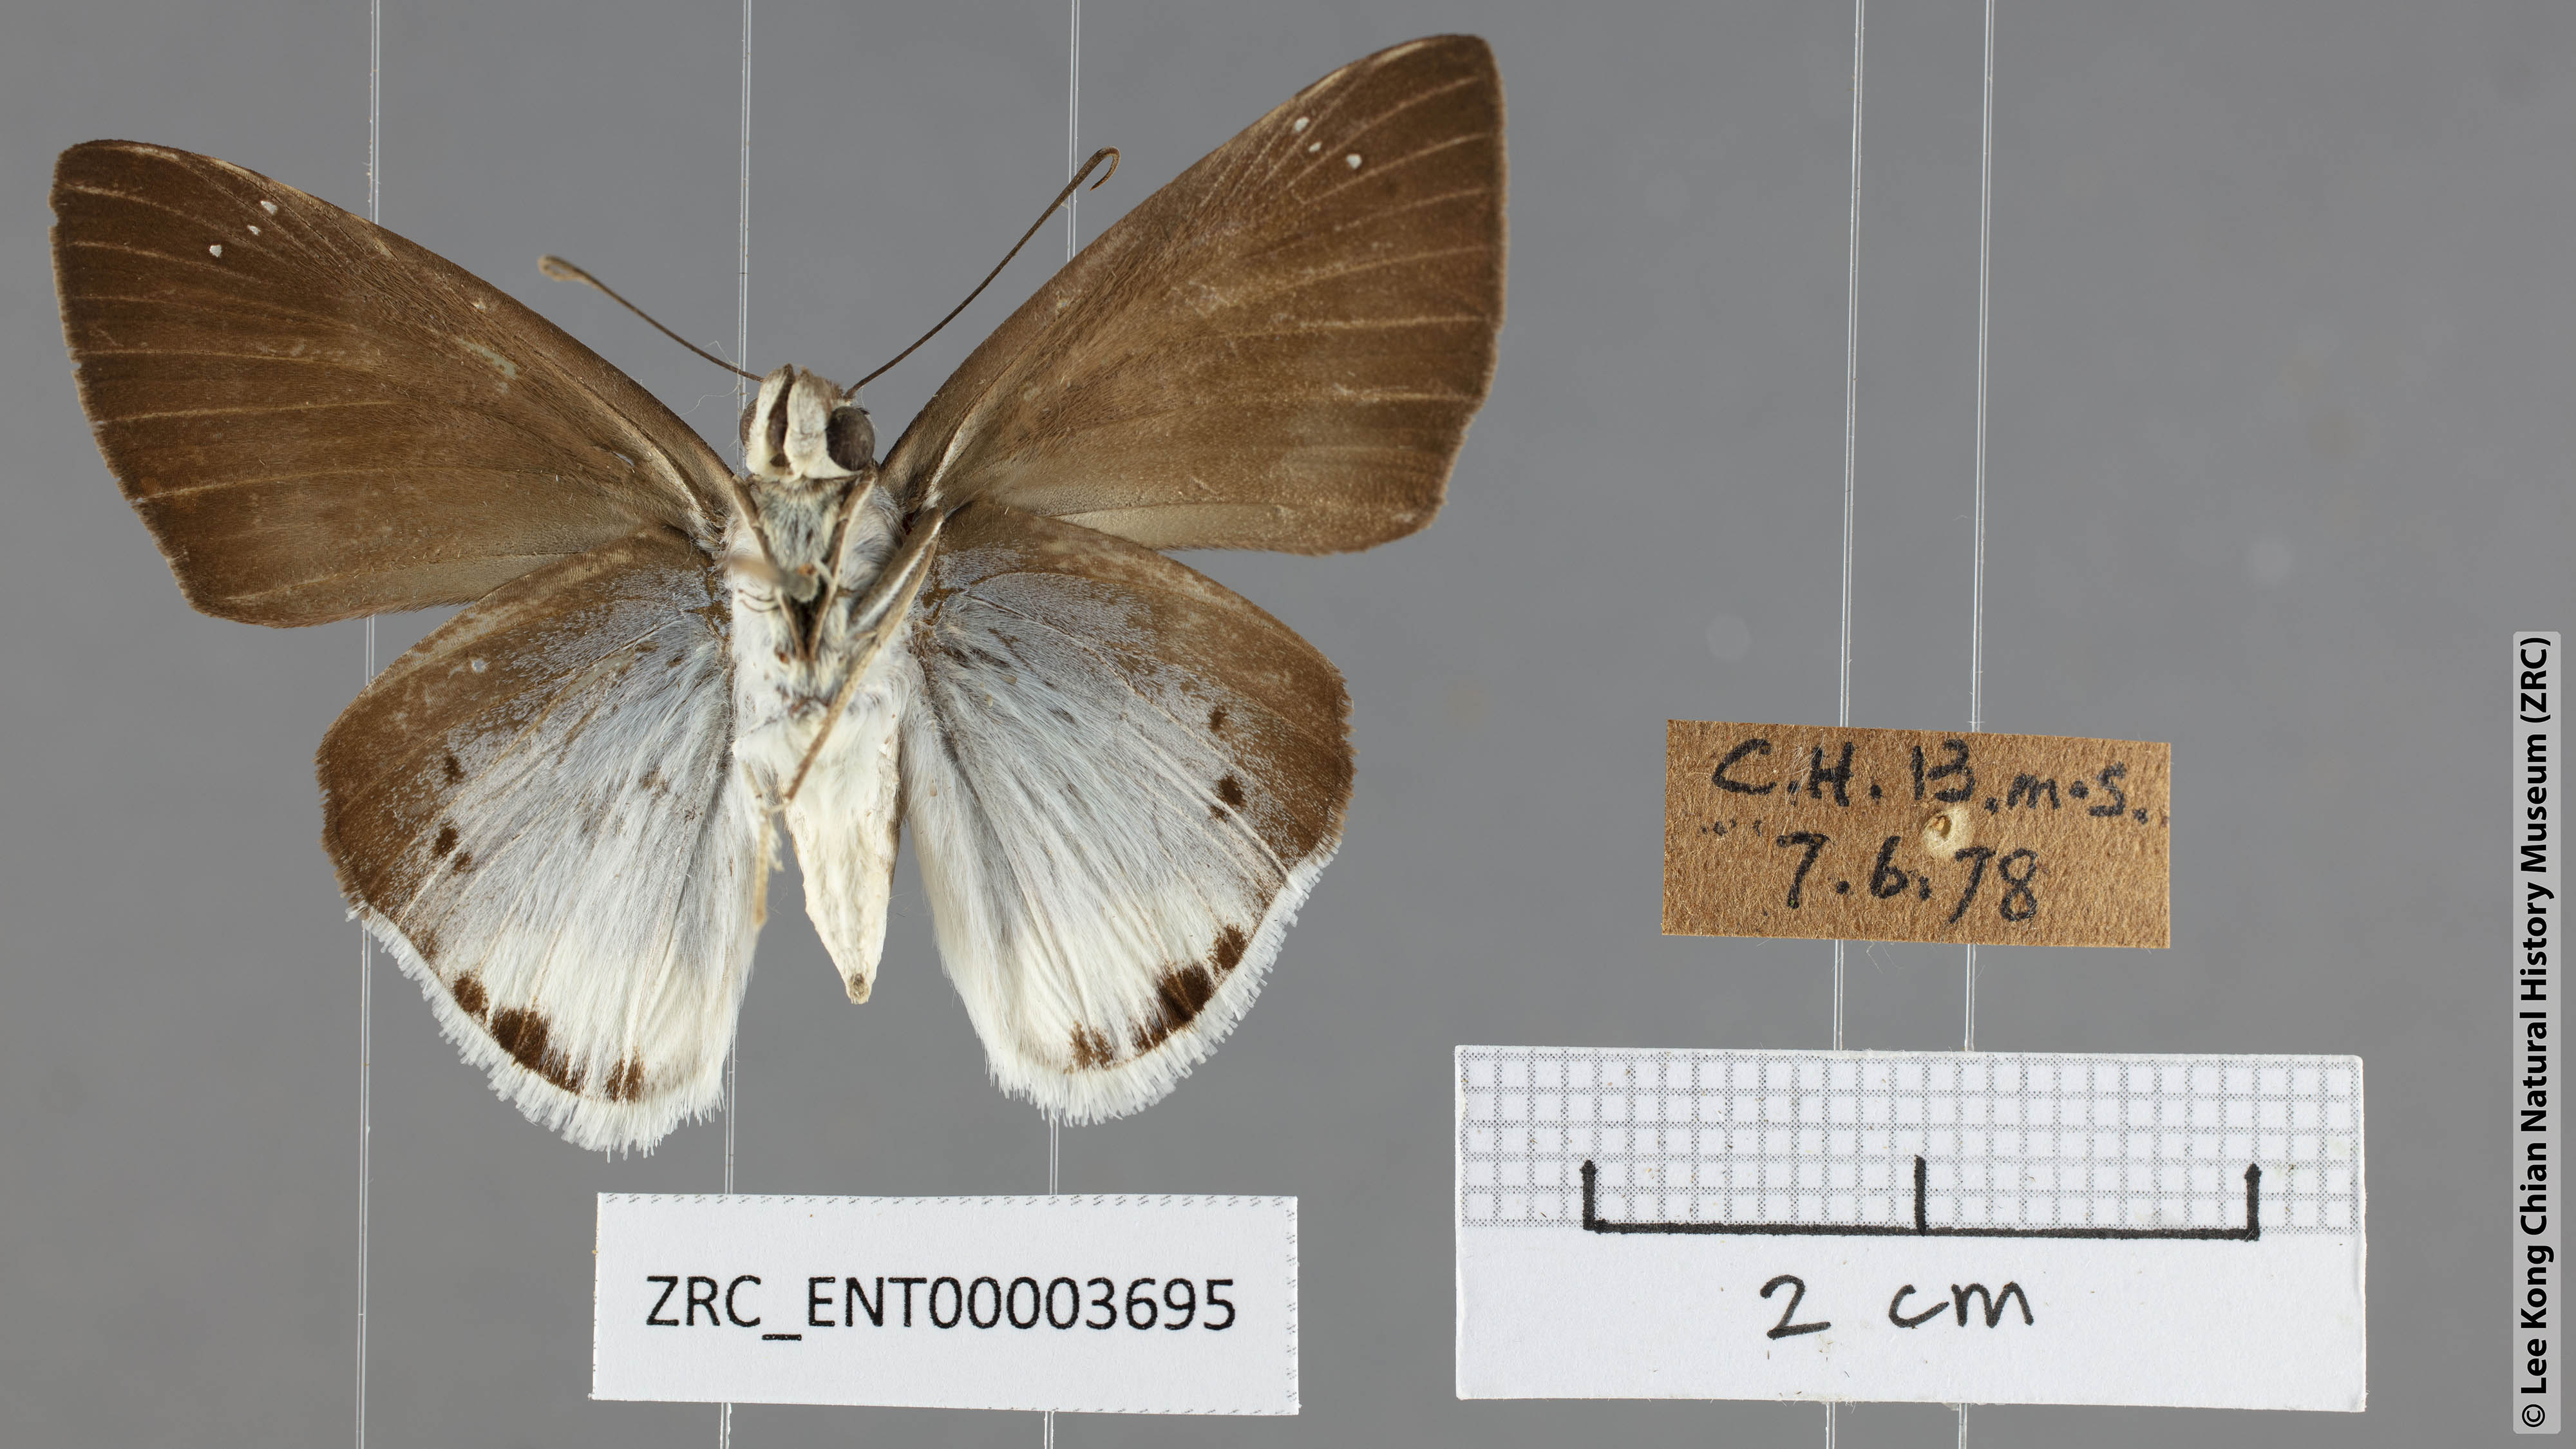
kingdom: Animalia
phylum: Arthropoda
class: Insecta
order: Lepidoptera
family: Hesperiidae
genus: Tagiades
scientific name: Tagiades gana
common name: Suffused snow flat
